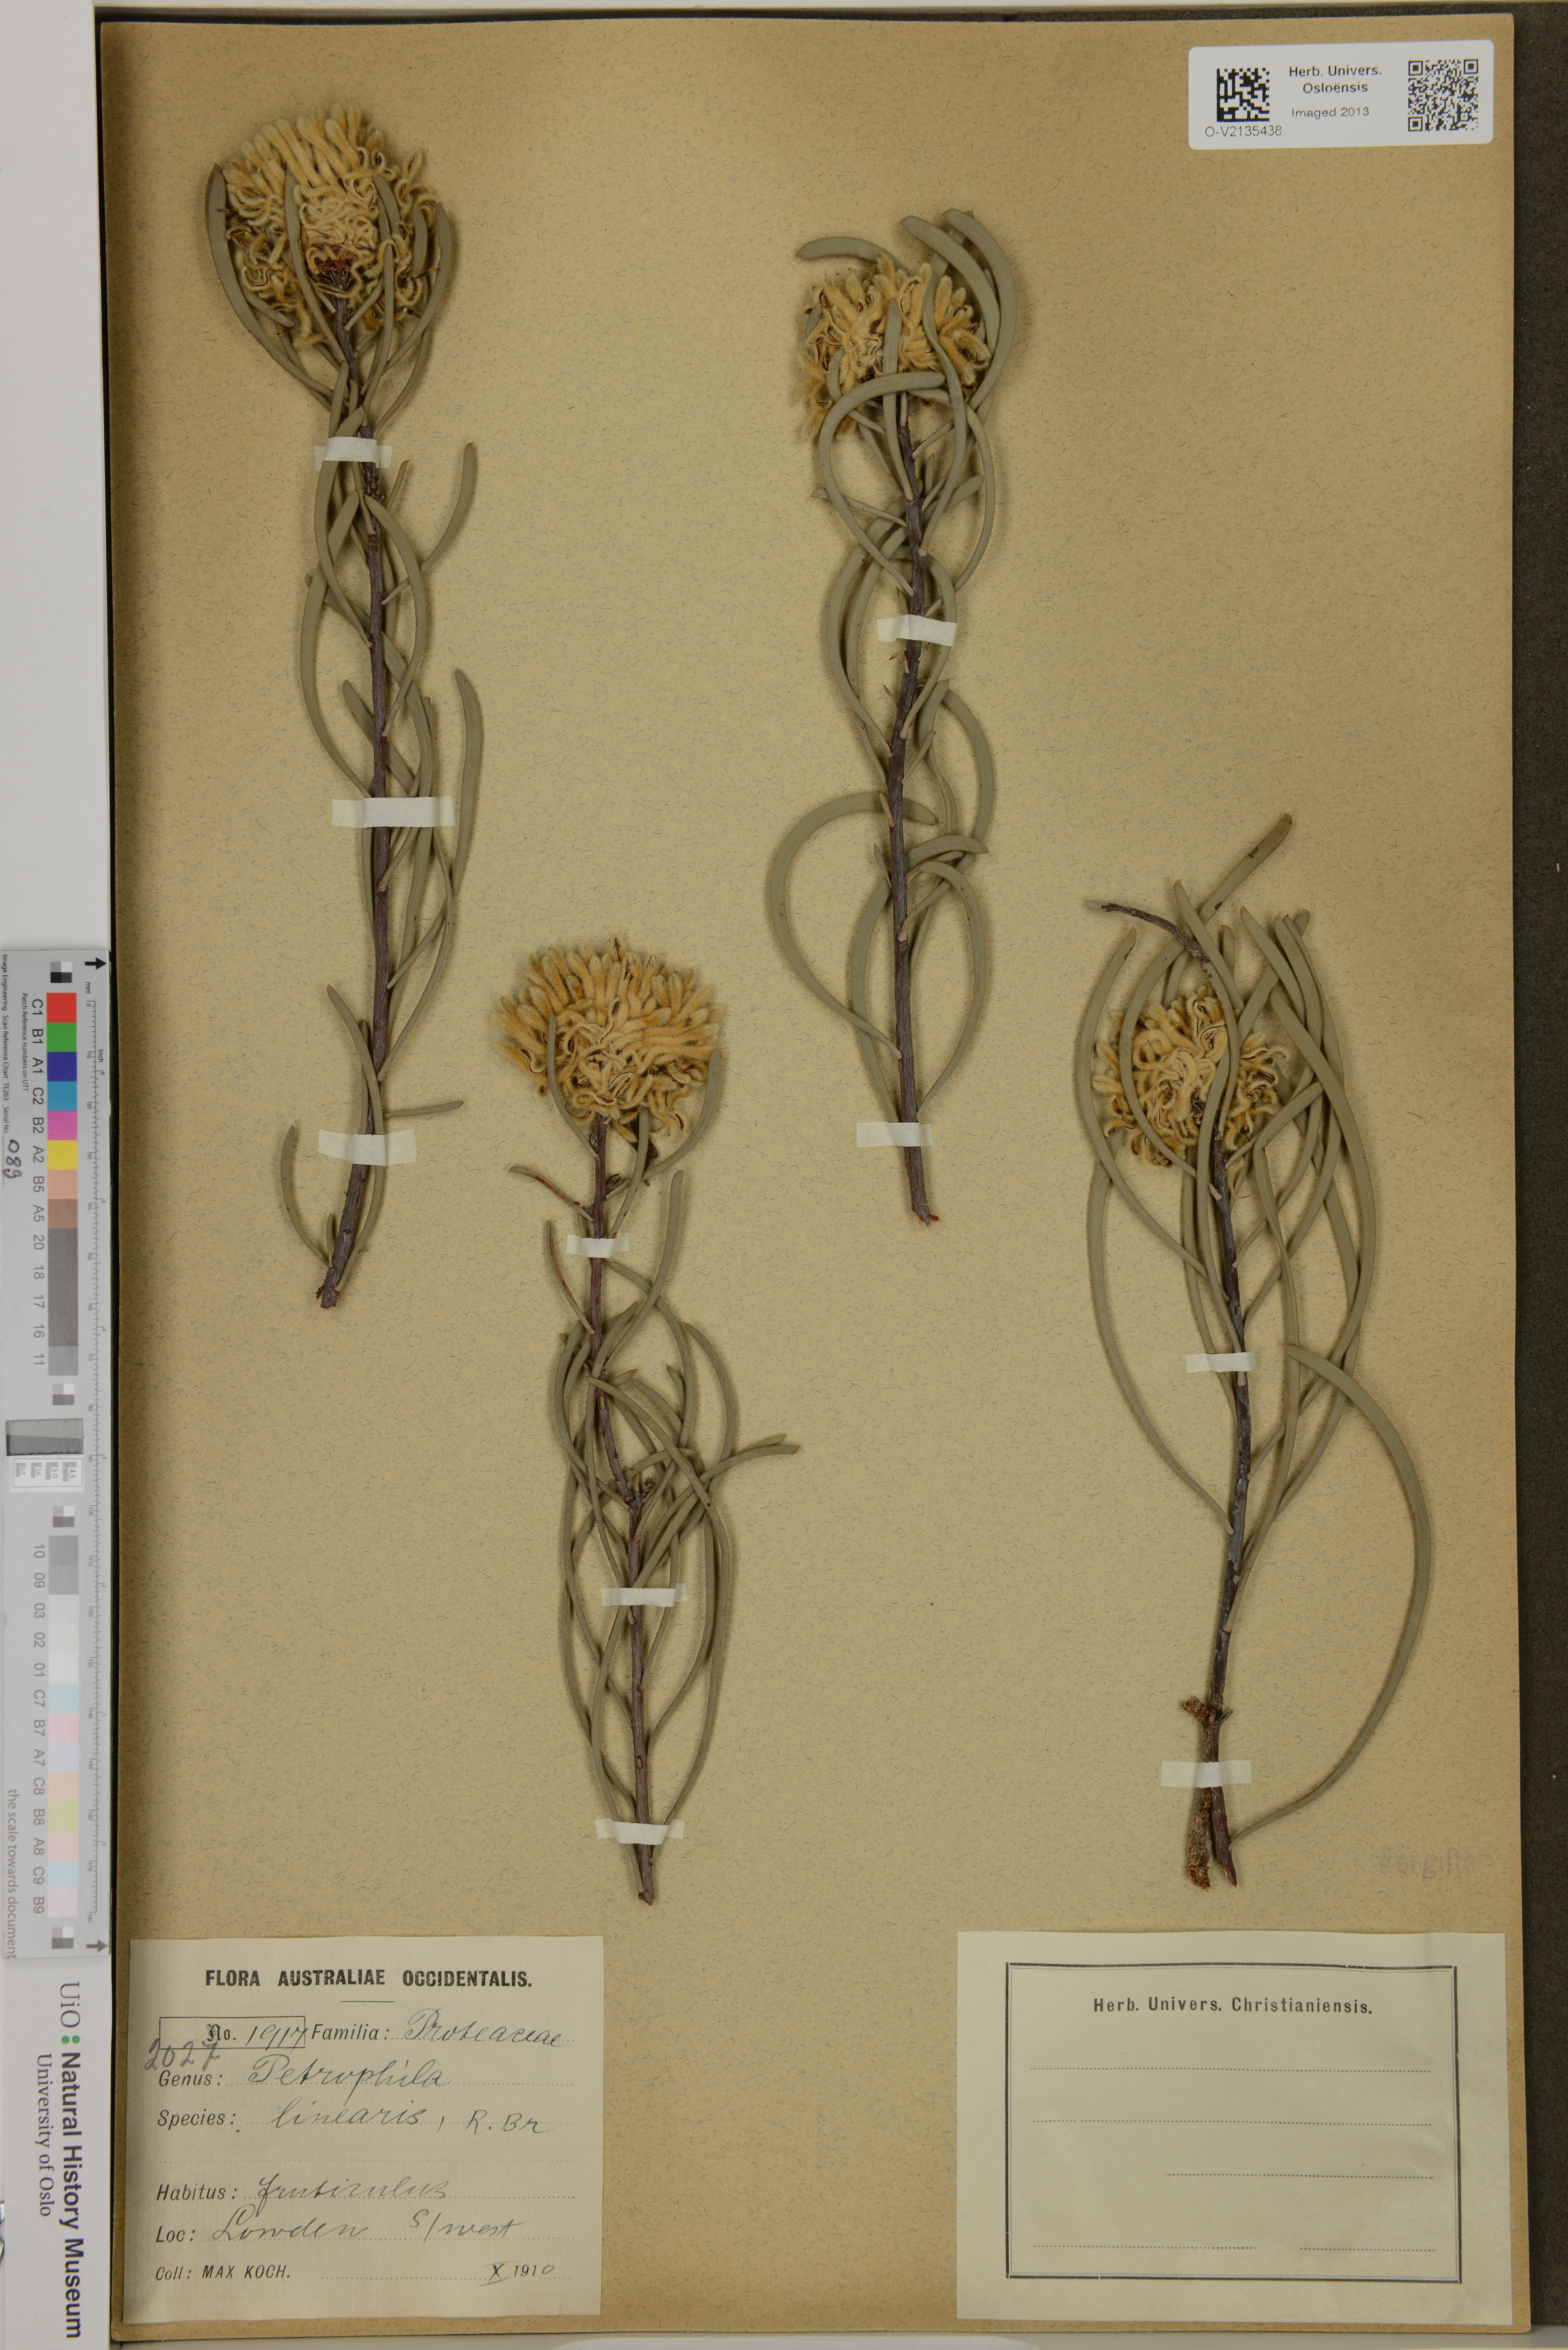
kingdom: Plantae
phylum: Tracheophyta
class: Magnoliopsida
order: Proteales
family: Proteaceae
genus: Petrophila
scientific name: Petrophila
